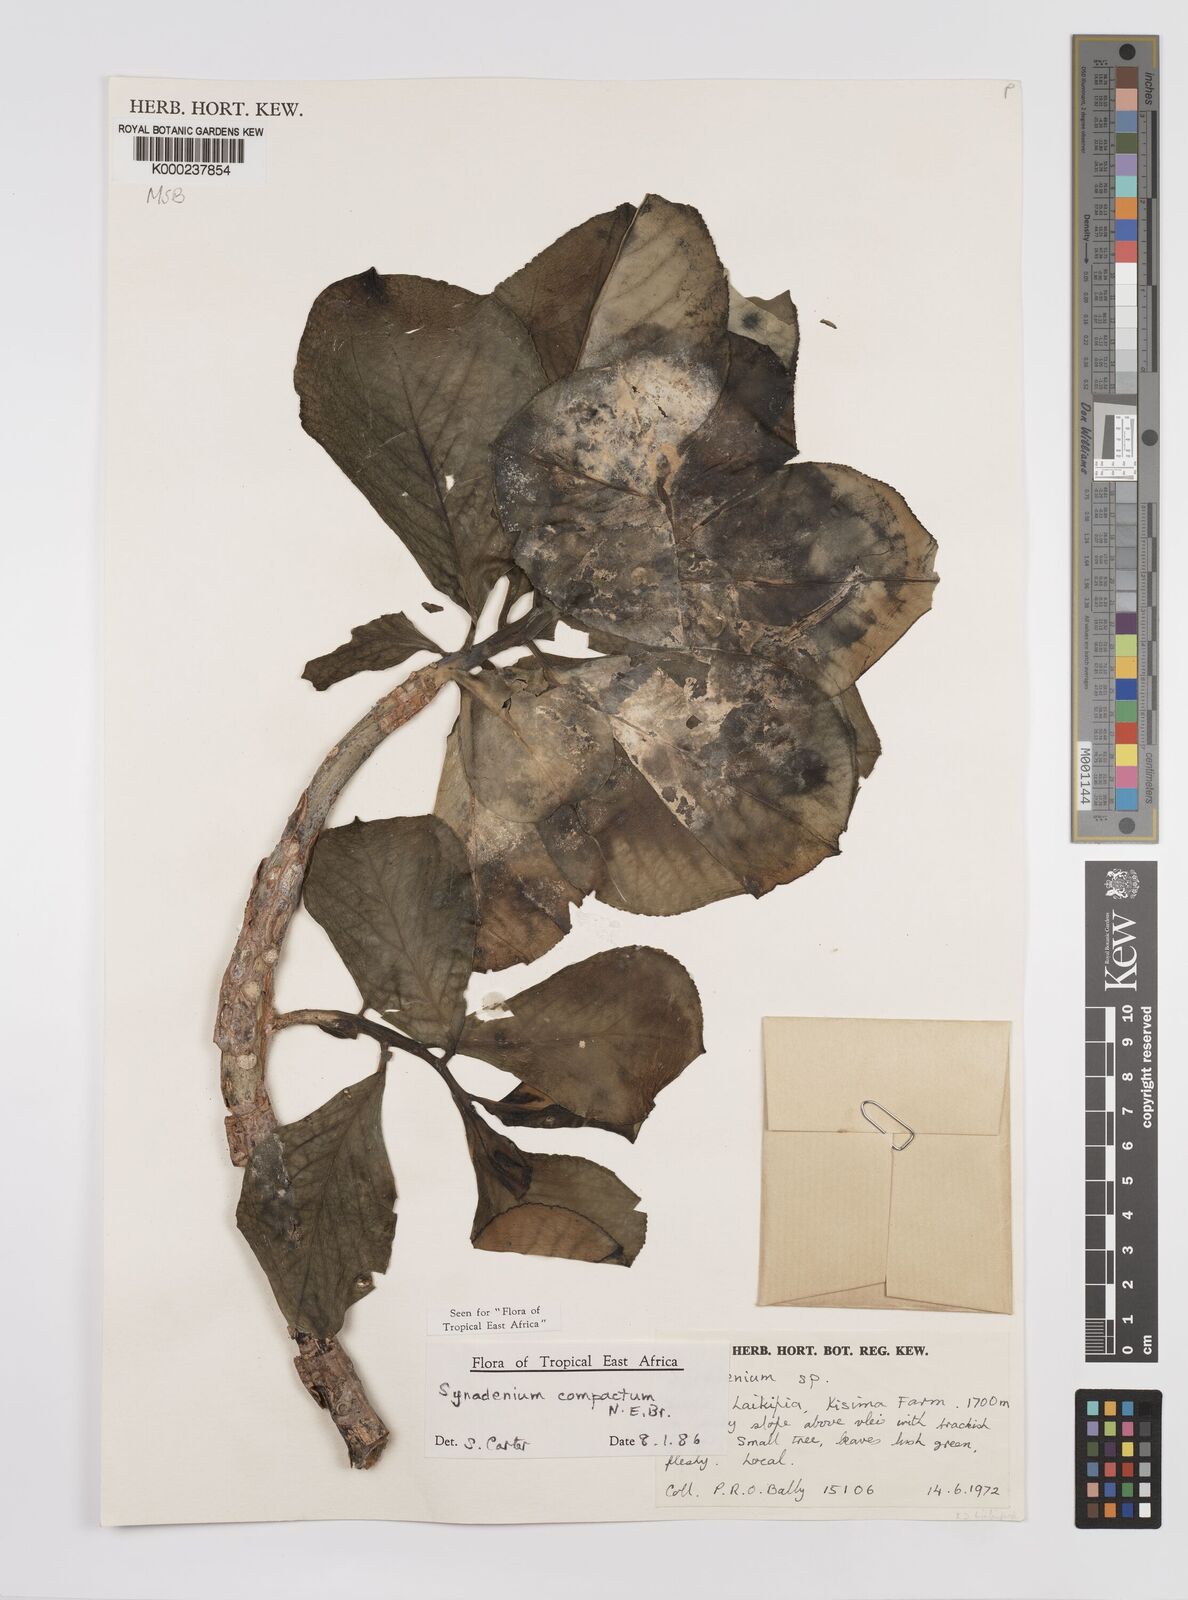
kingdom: Plantae
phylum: Tracheophyta
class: Magnoliopsida
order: Malpighiales
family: Euphorbiaceae
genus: Euphorbia
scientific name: Euphorbia bicompacta
